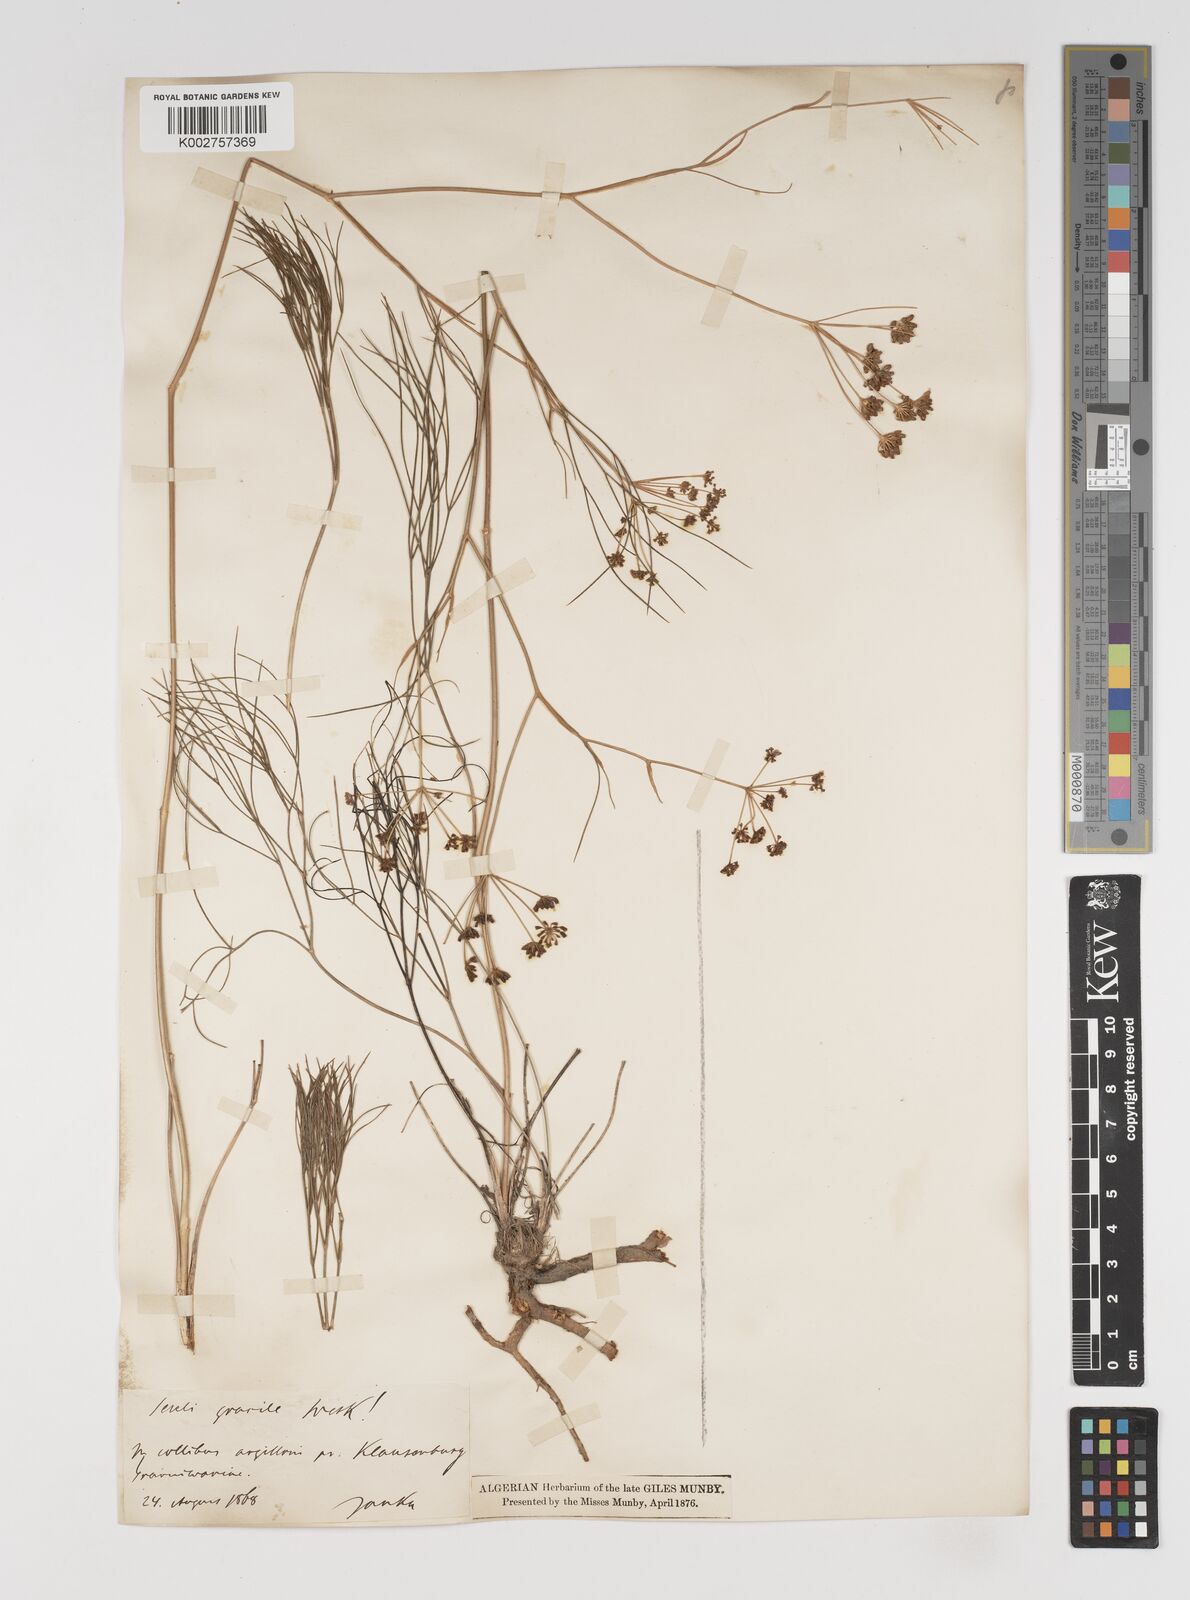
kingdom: Plantae
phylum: Tracheophyta
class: Magnoliopsida
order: Apiales
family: Apiaceae
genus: Seseli
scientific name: Seseli gracile
